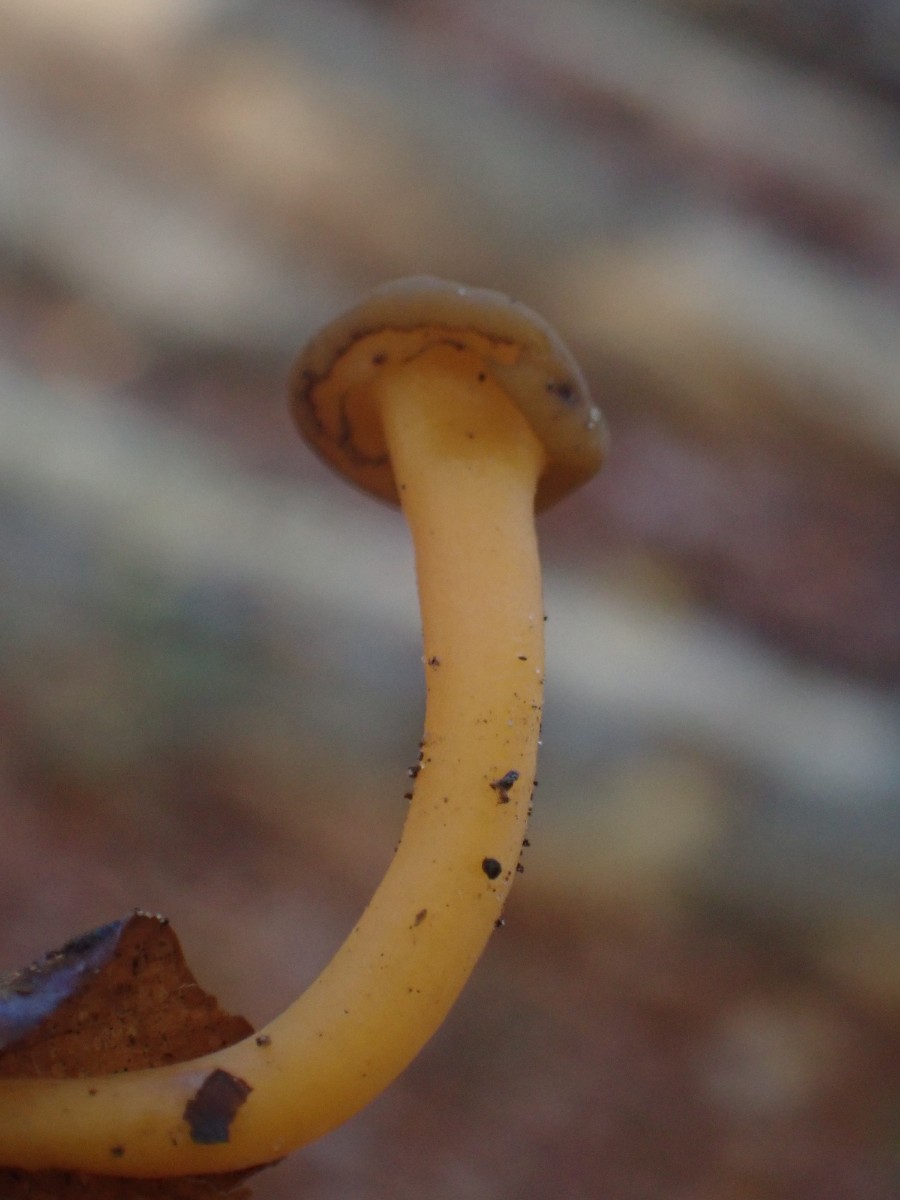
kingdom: Fungi
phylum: Ascomycota
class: Leotiomycetes
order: Leotiales
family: Leotiaceae
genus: Leotia
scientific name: Leotia lubrica
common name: ravsvamp
